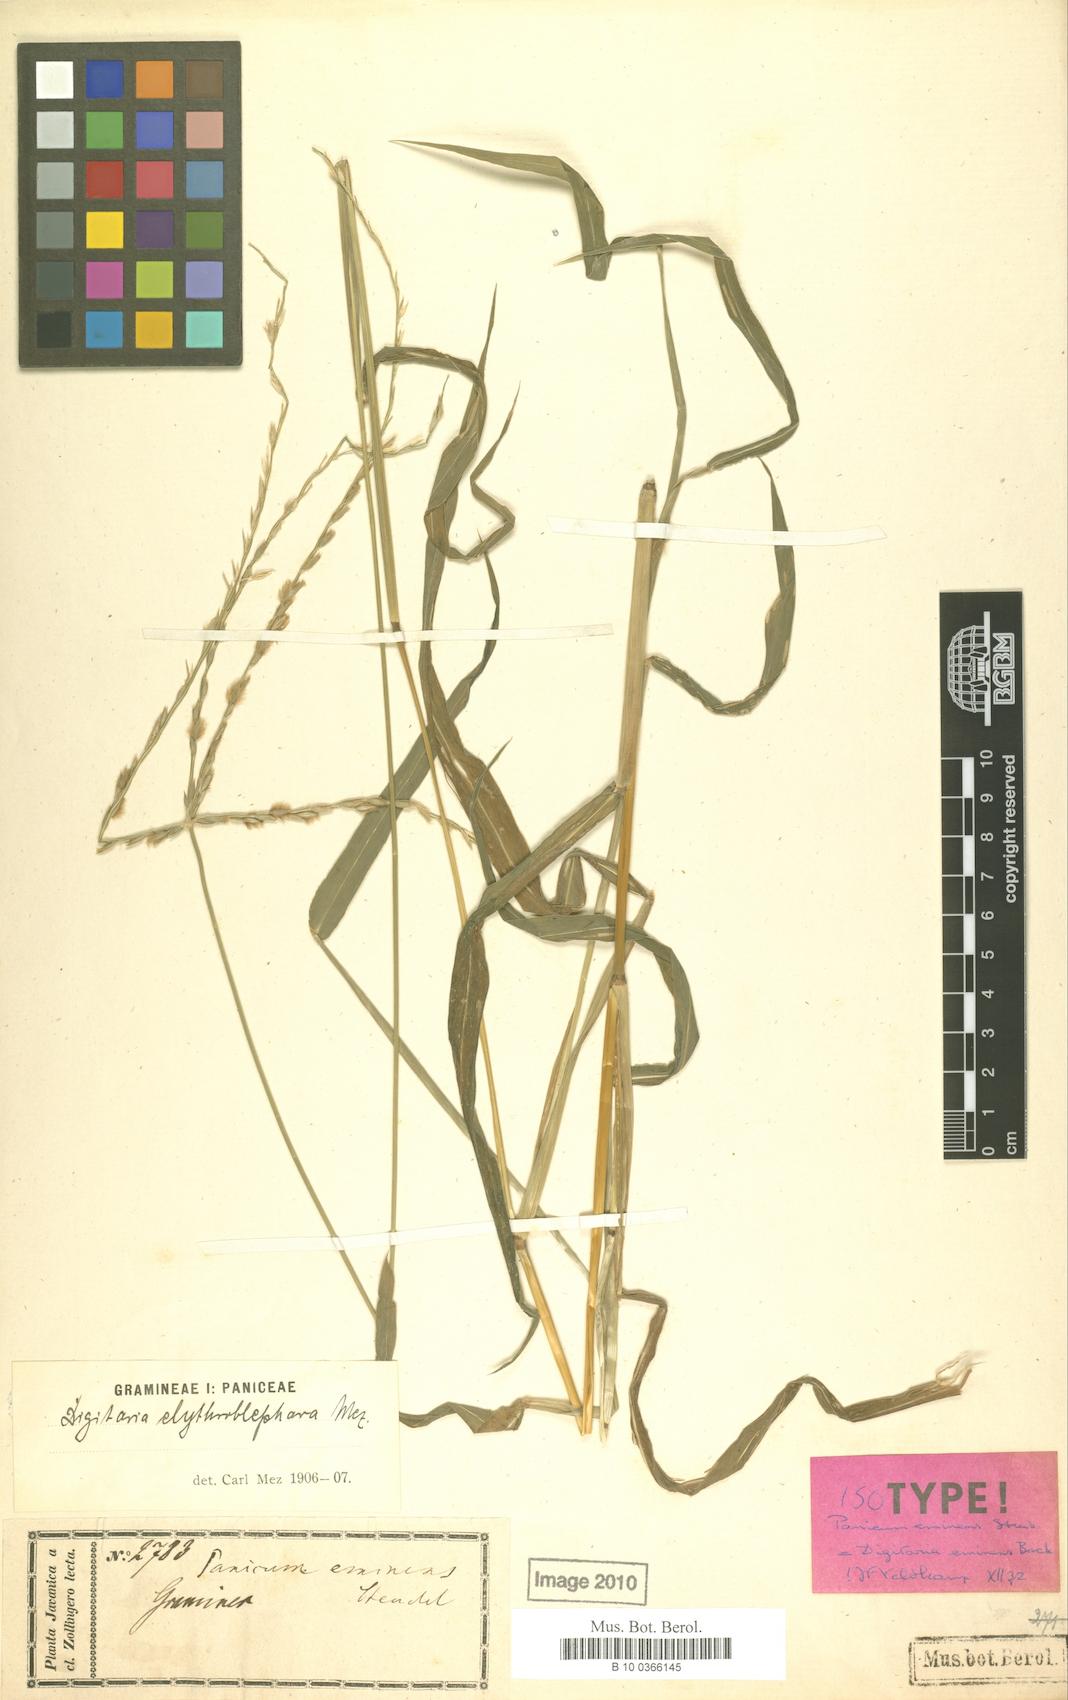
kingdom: Plantae
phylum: Tracheophyta
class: Liliopsida
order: Poales
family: Poaceae
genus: Digitaria
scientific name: Digitaria eminens
